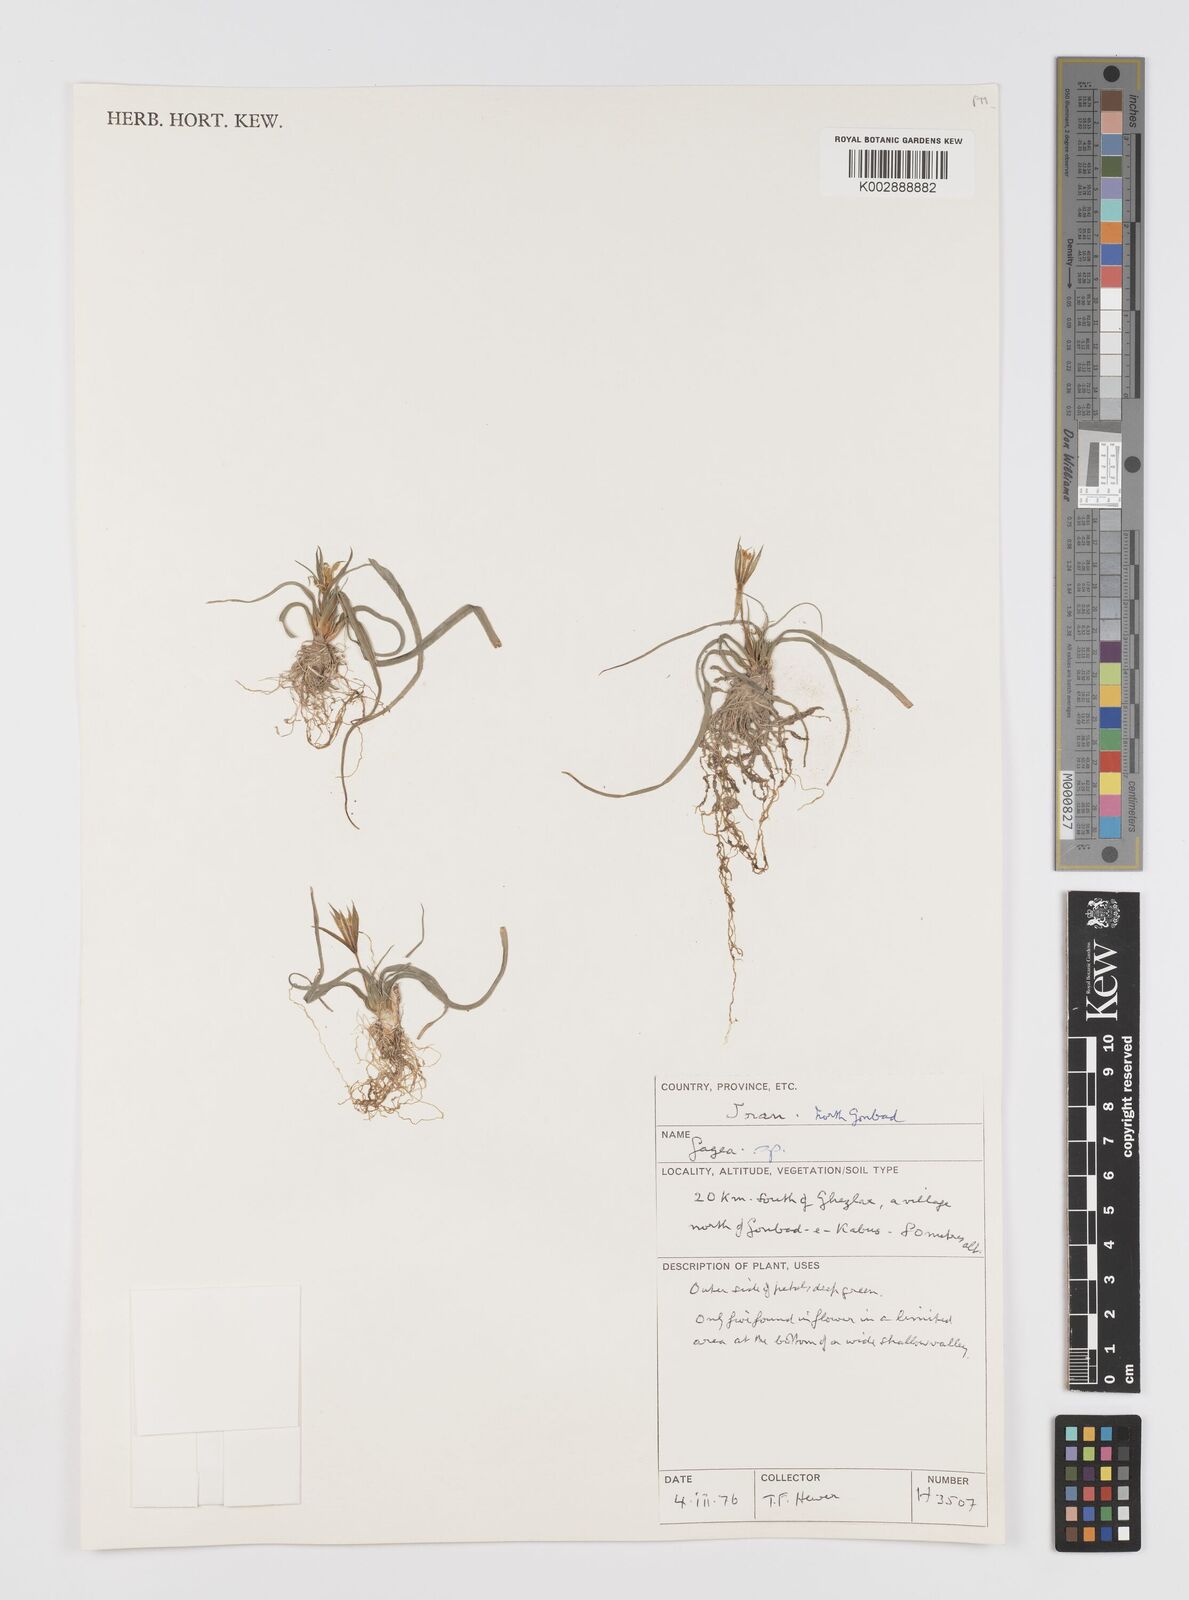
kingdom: Plantae
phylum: Tracheophyta
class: Liliopsida
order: Liliales
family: Liliaceae
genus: Gagea
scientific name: Gagea
